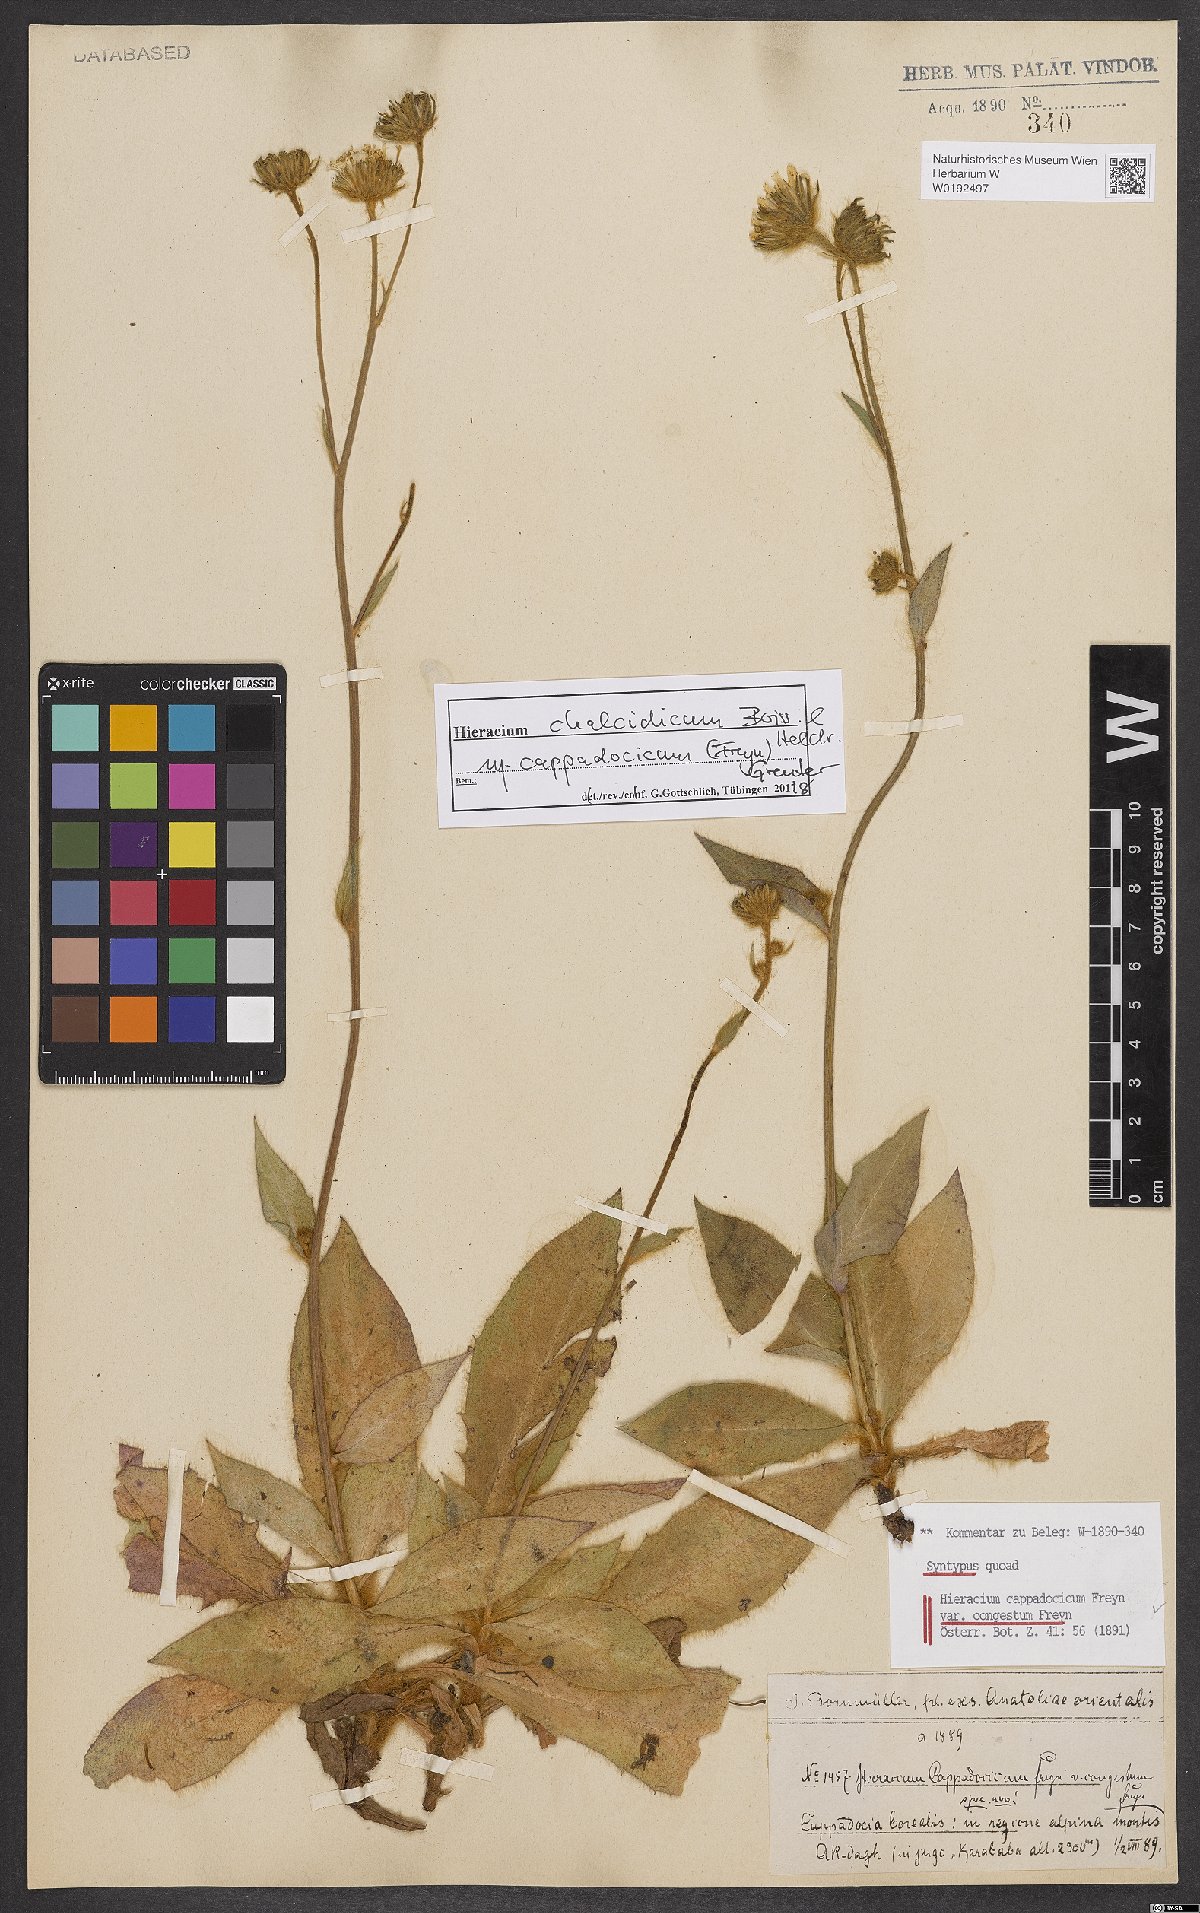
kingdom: Plantae
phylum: Tracheophyta
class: Magnoliopsida
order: Asterales
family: Asteraceae
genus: Hieracium
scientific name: Hieracium chalcidicum
